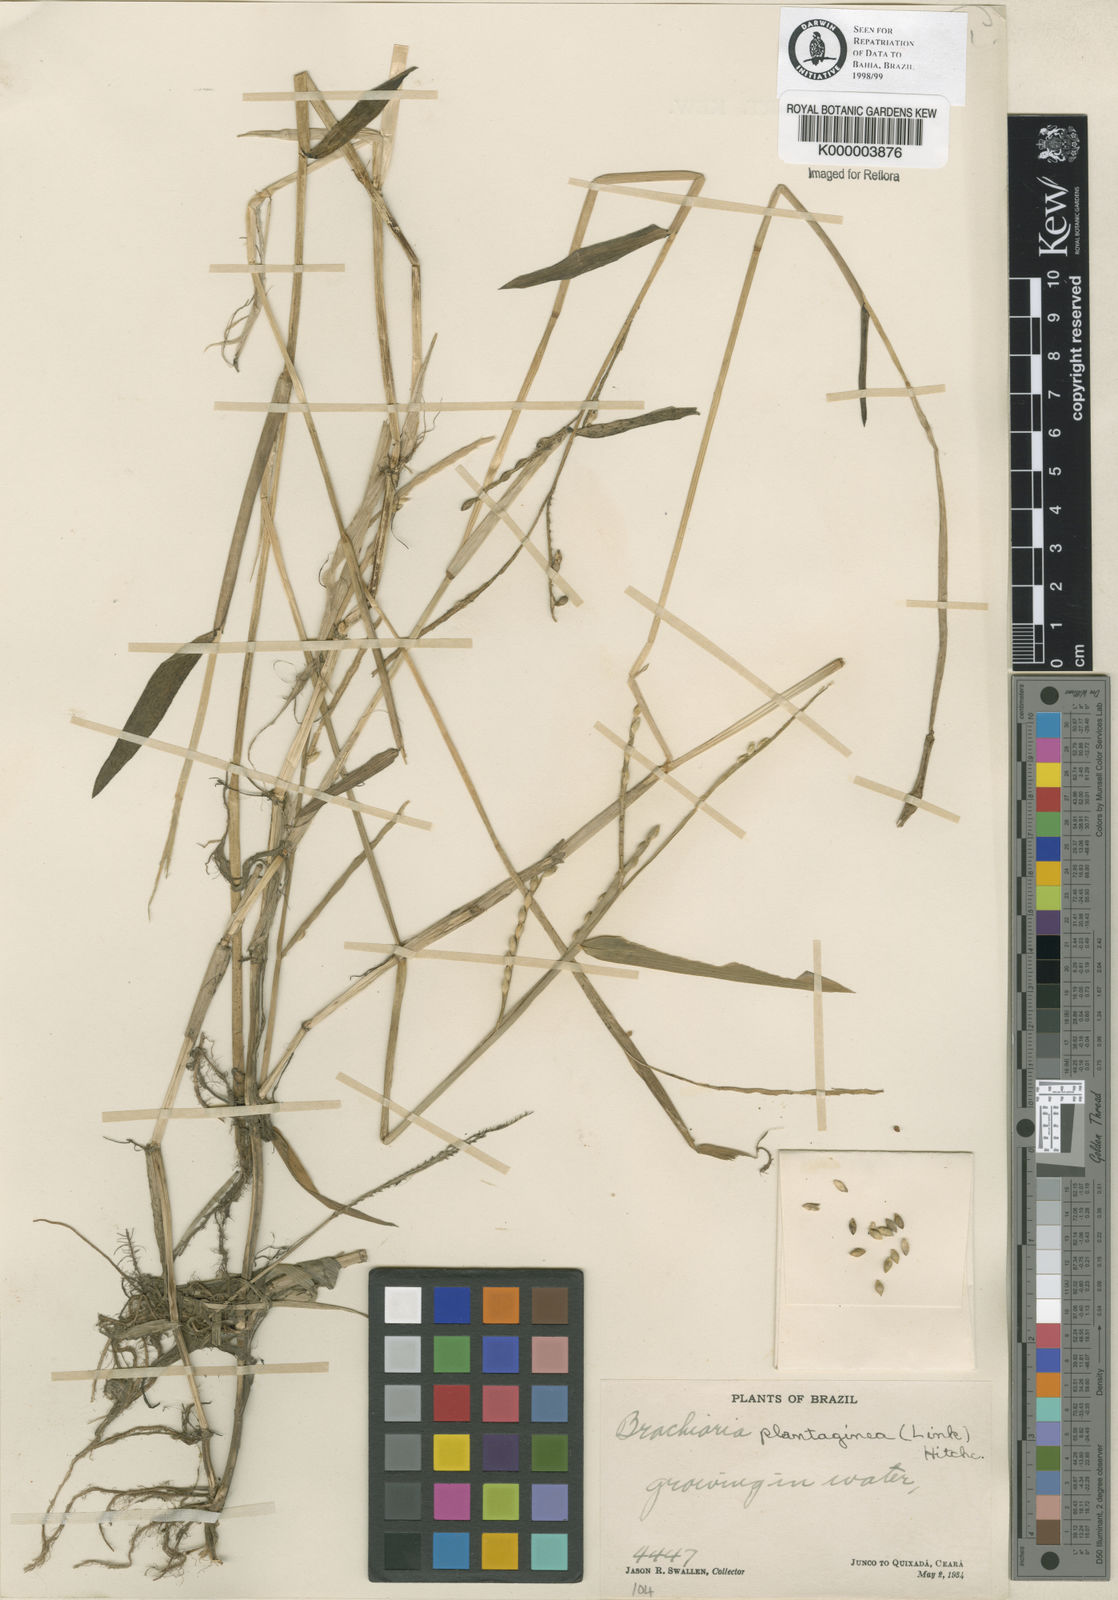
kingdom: Plantae
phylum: Tracheophyta
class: Liliopsida
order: Poales
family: Poaceae
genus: Urochloa
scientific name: Urochloa plantaginea
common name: Plantain signalgrass
